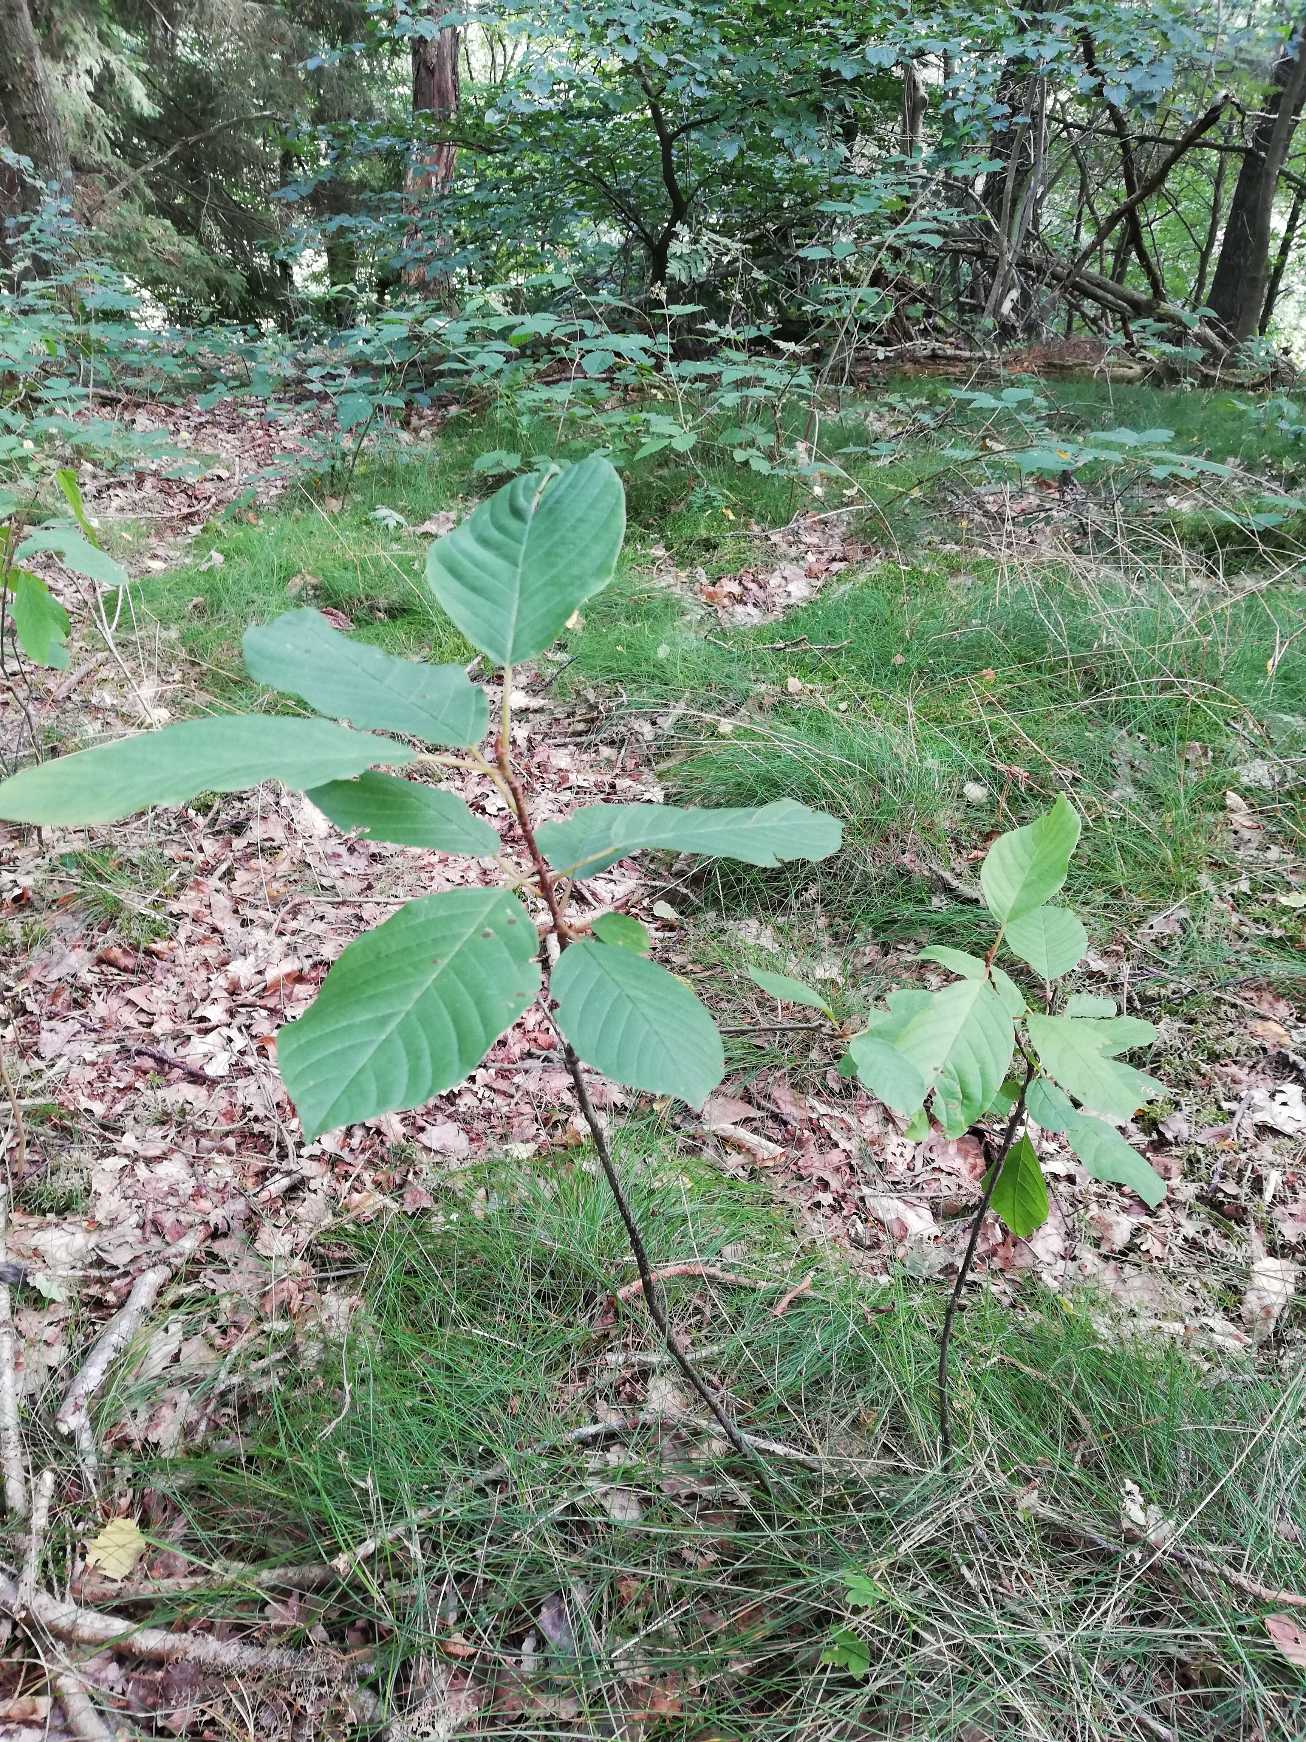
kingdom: Plantae
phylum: Tracheophyta
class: Magnoliopsida
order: Rosales
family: Rhamnaceae
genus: Frangula
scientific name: Frangula alnus
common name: Tørst
